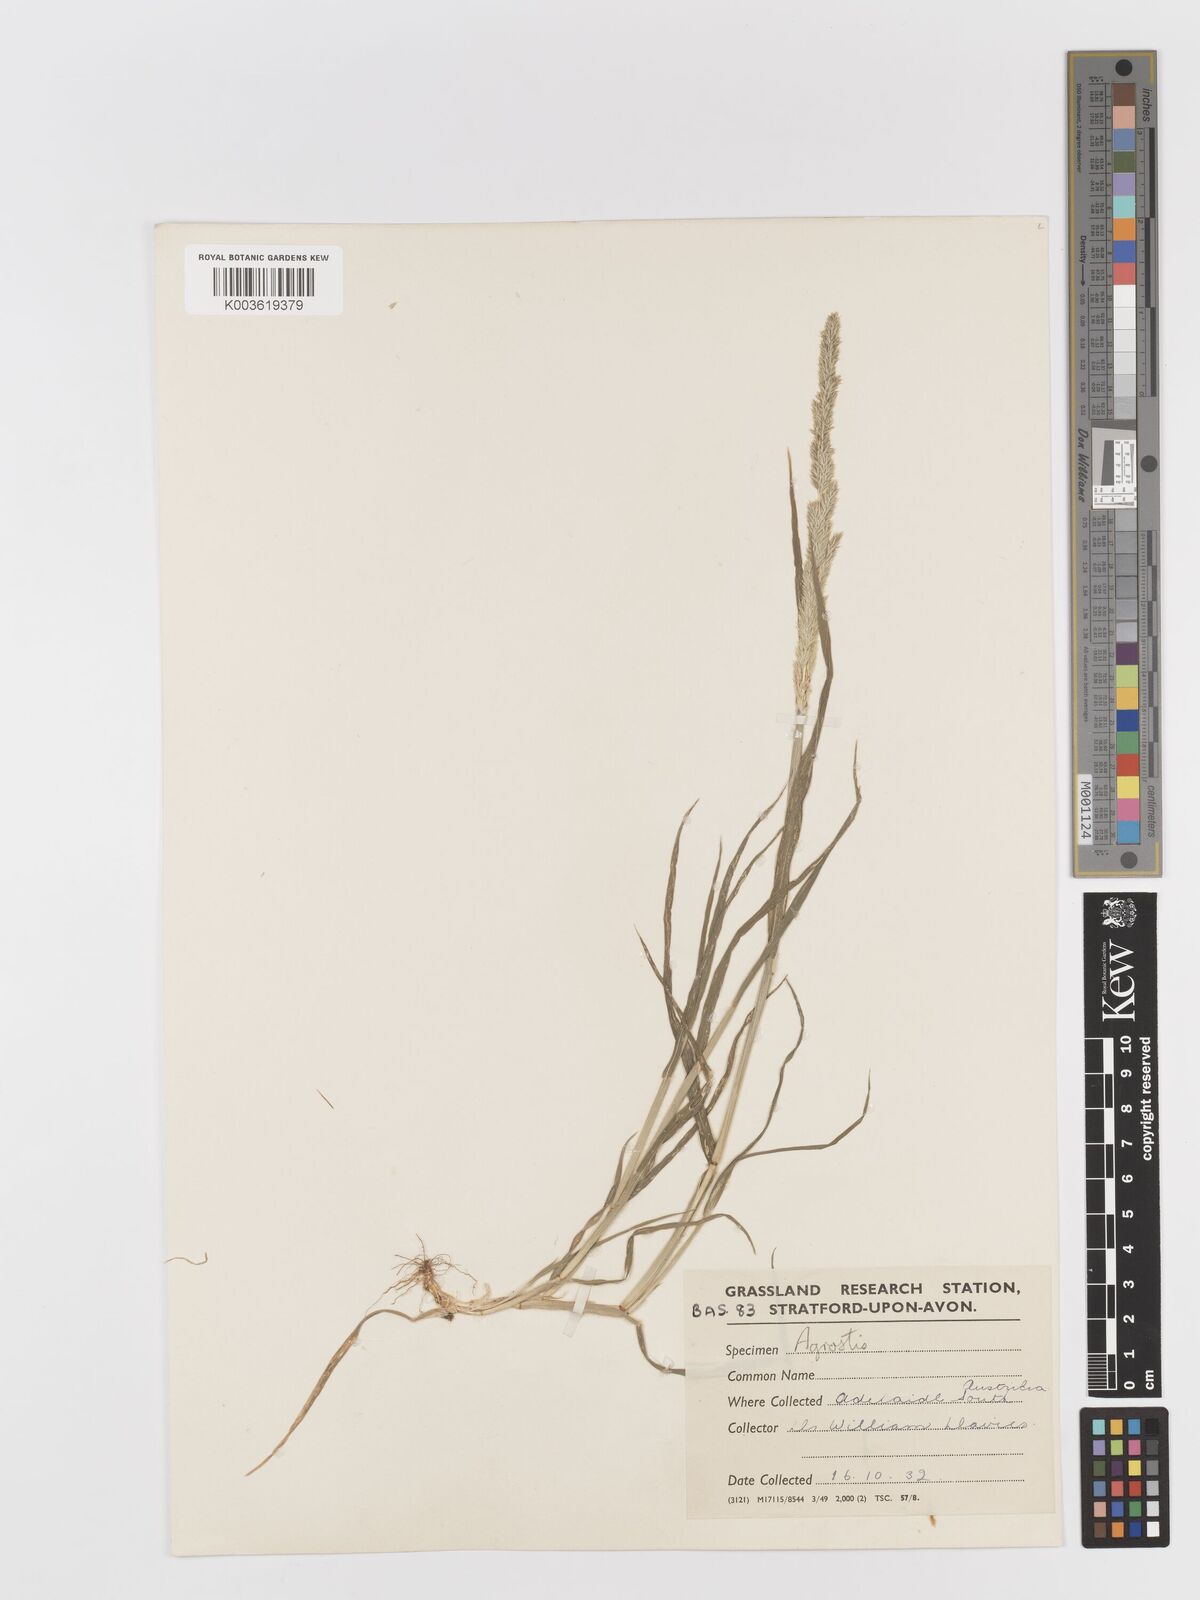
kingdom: Plantae
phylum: Tracheophyta
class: Liliopsida
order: Poales
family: Poaceae
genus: Rostraria
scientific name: Rostraria
